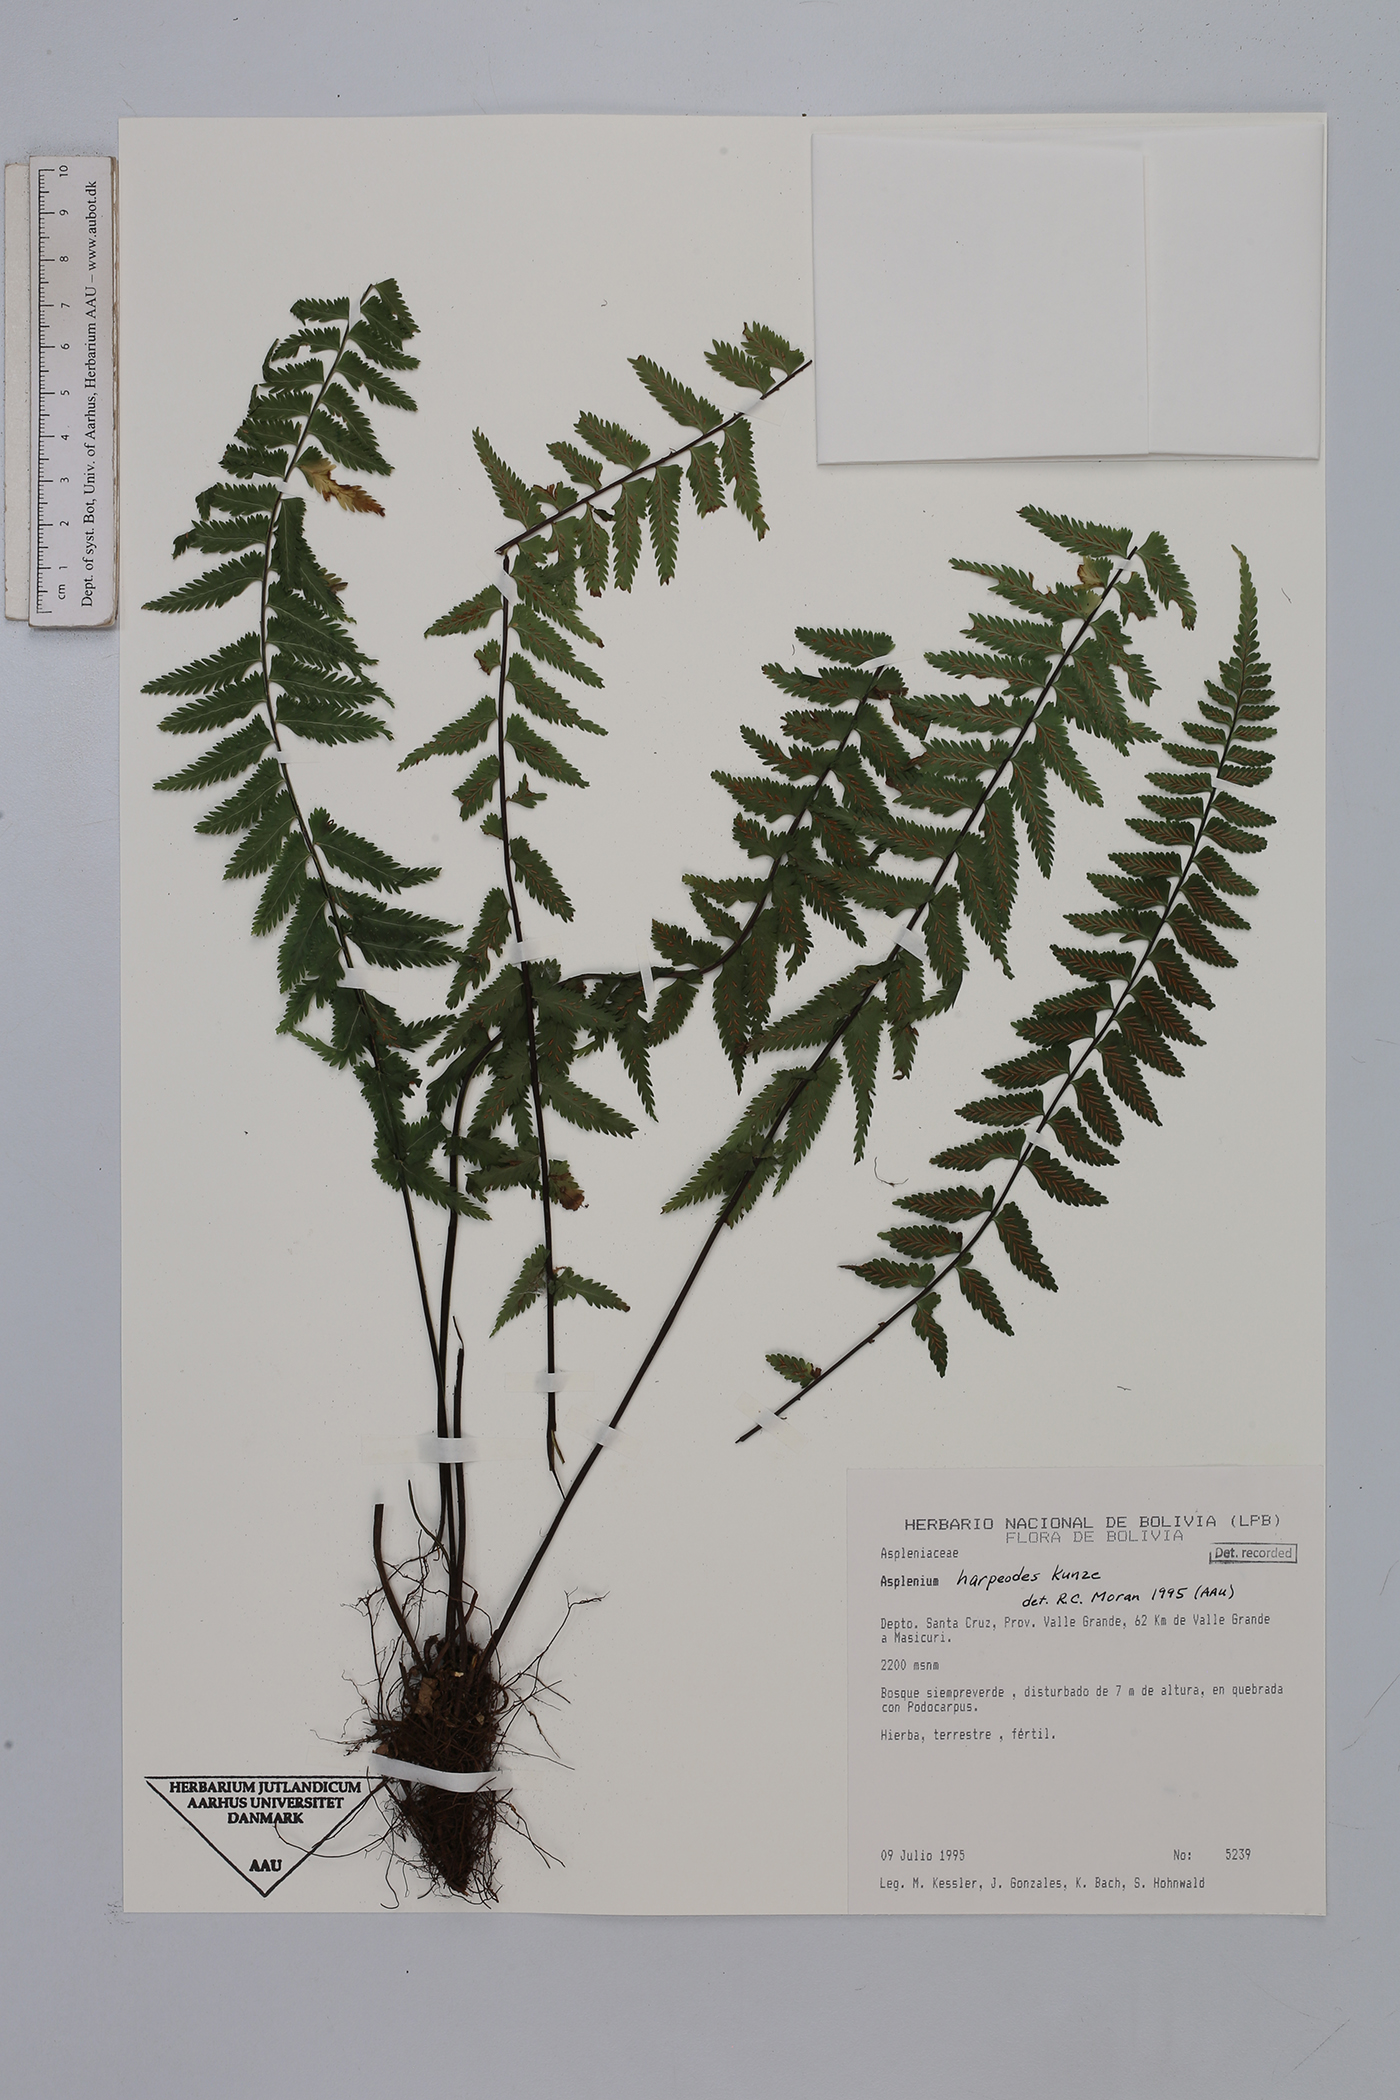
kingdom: Plantae
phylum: Tracheophyta
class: Polypodiopsida
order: Polypodiales
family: Aspleniaceae
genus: Asplenium
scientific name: Asplenium harpeodes
